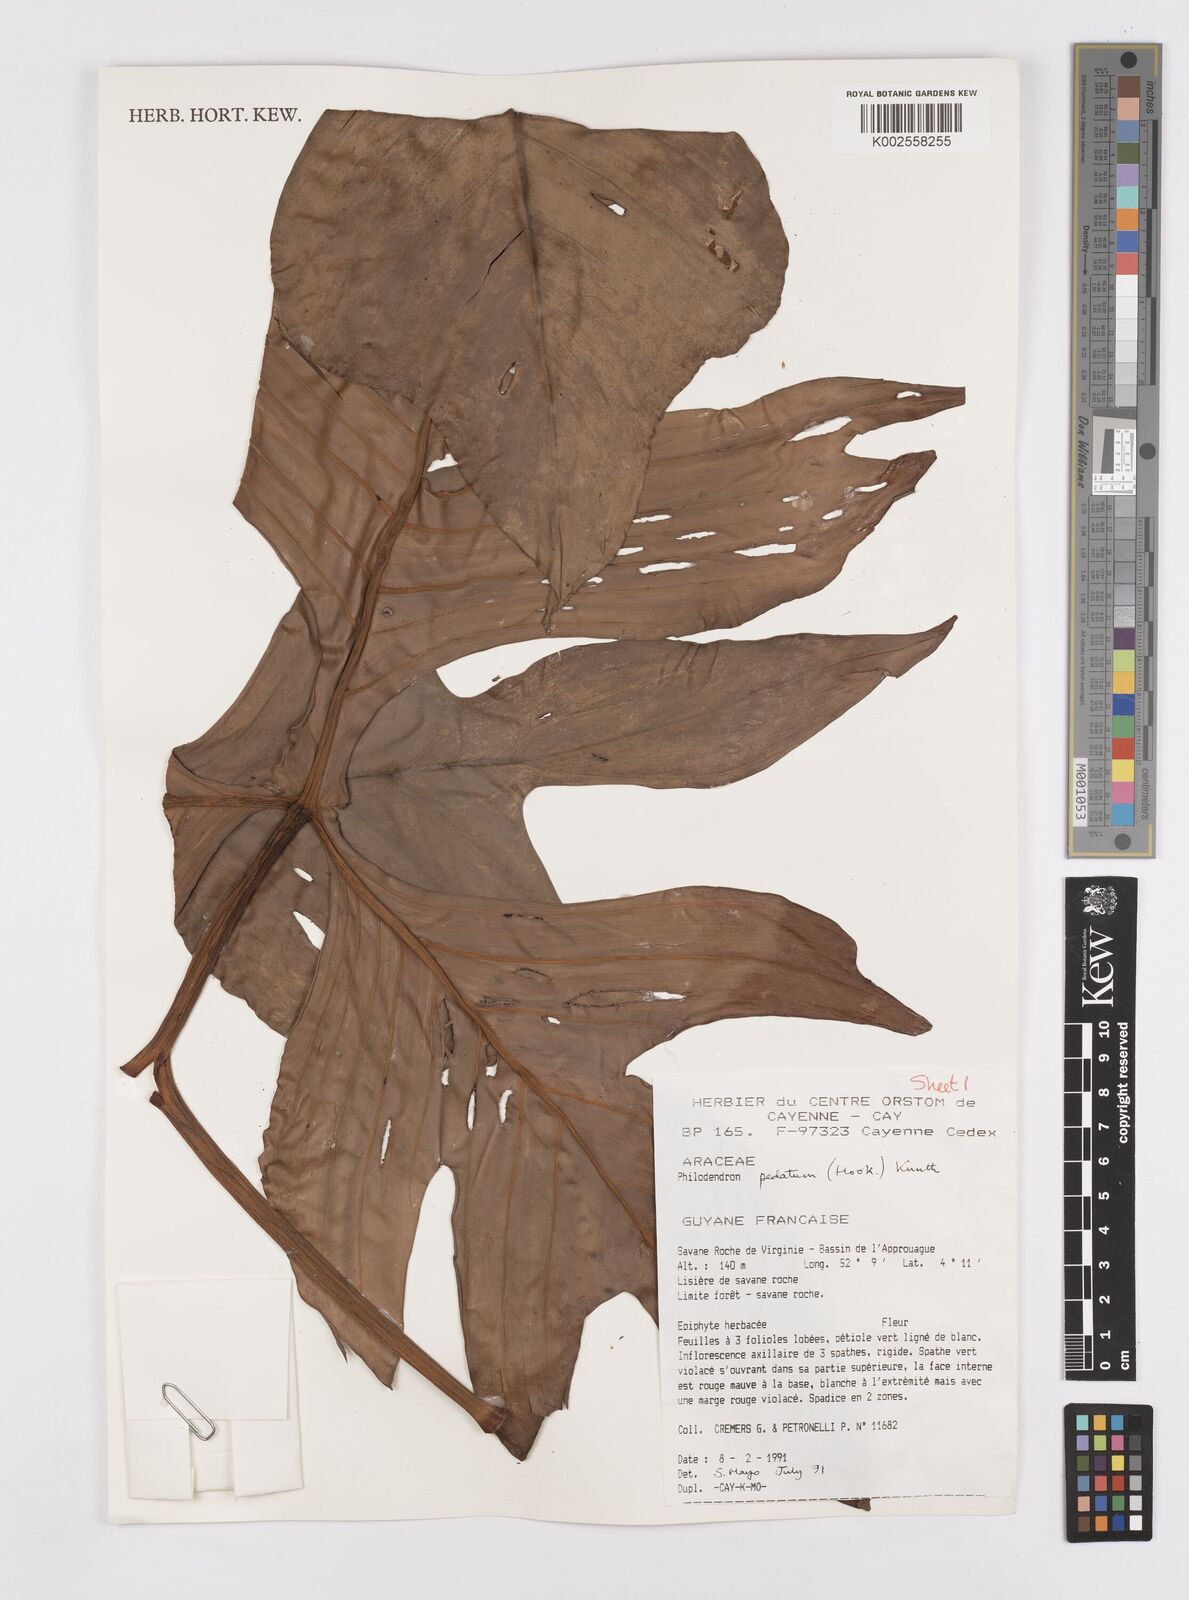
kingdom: Plantae
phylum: Tracheophyta
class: Liliopsida
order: Alismatales
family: Araceae
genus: Philodendron
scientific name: Philodendron pedatum
